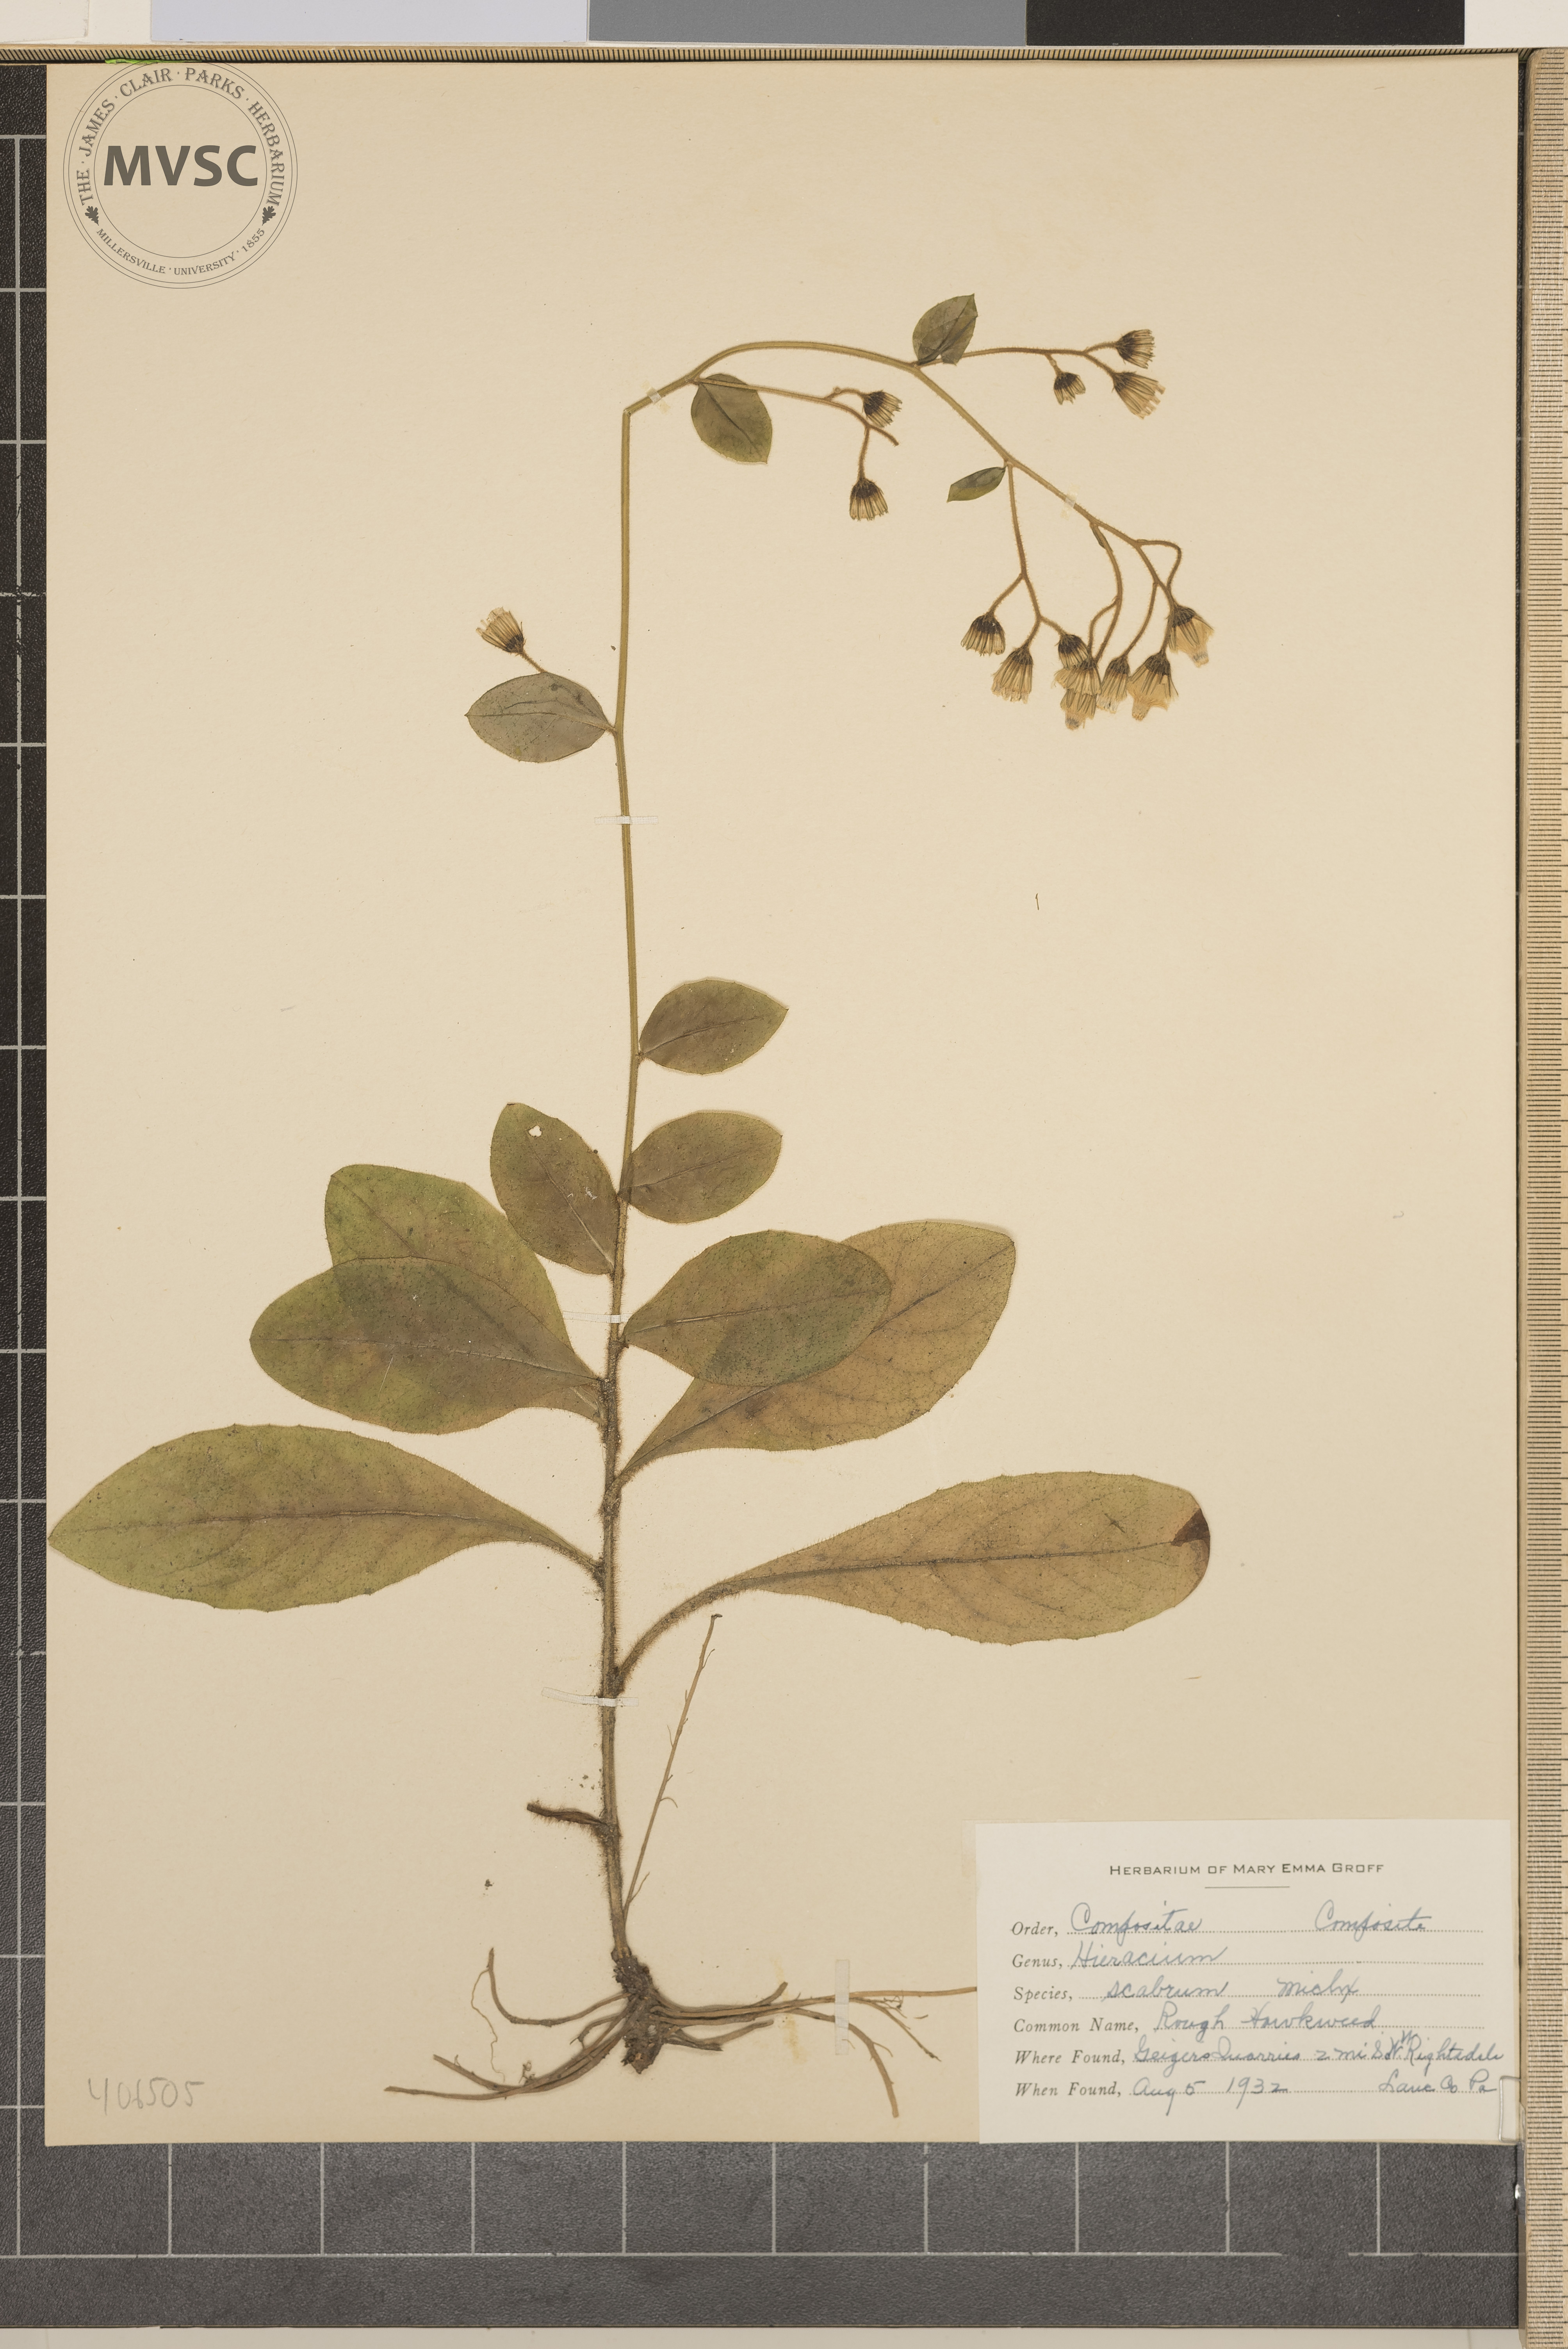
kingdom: Plantae
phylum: Tracheophyta
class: Magnoliopsida
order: Asterales
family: Asteraceae
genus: Hieracium
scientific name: Hieracium scabrum
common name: rough hawkweed
